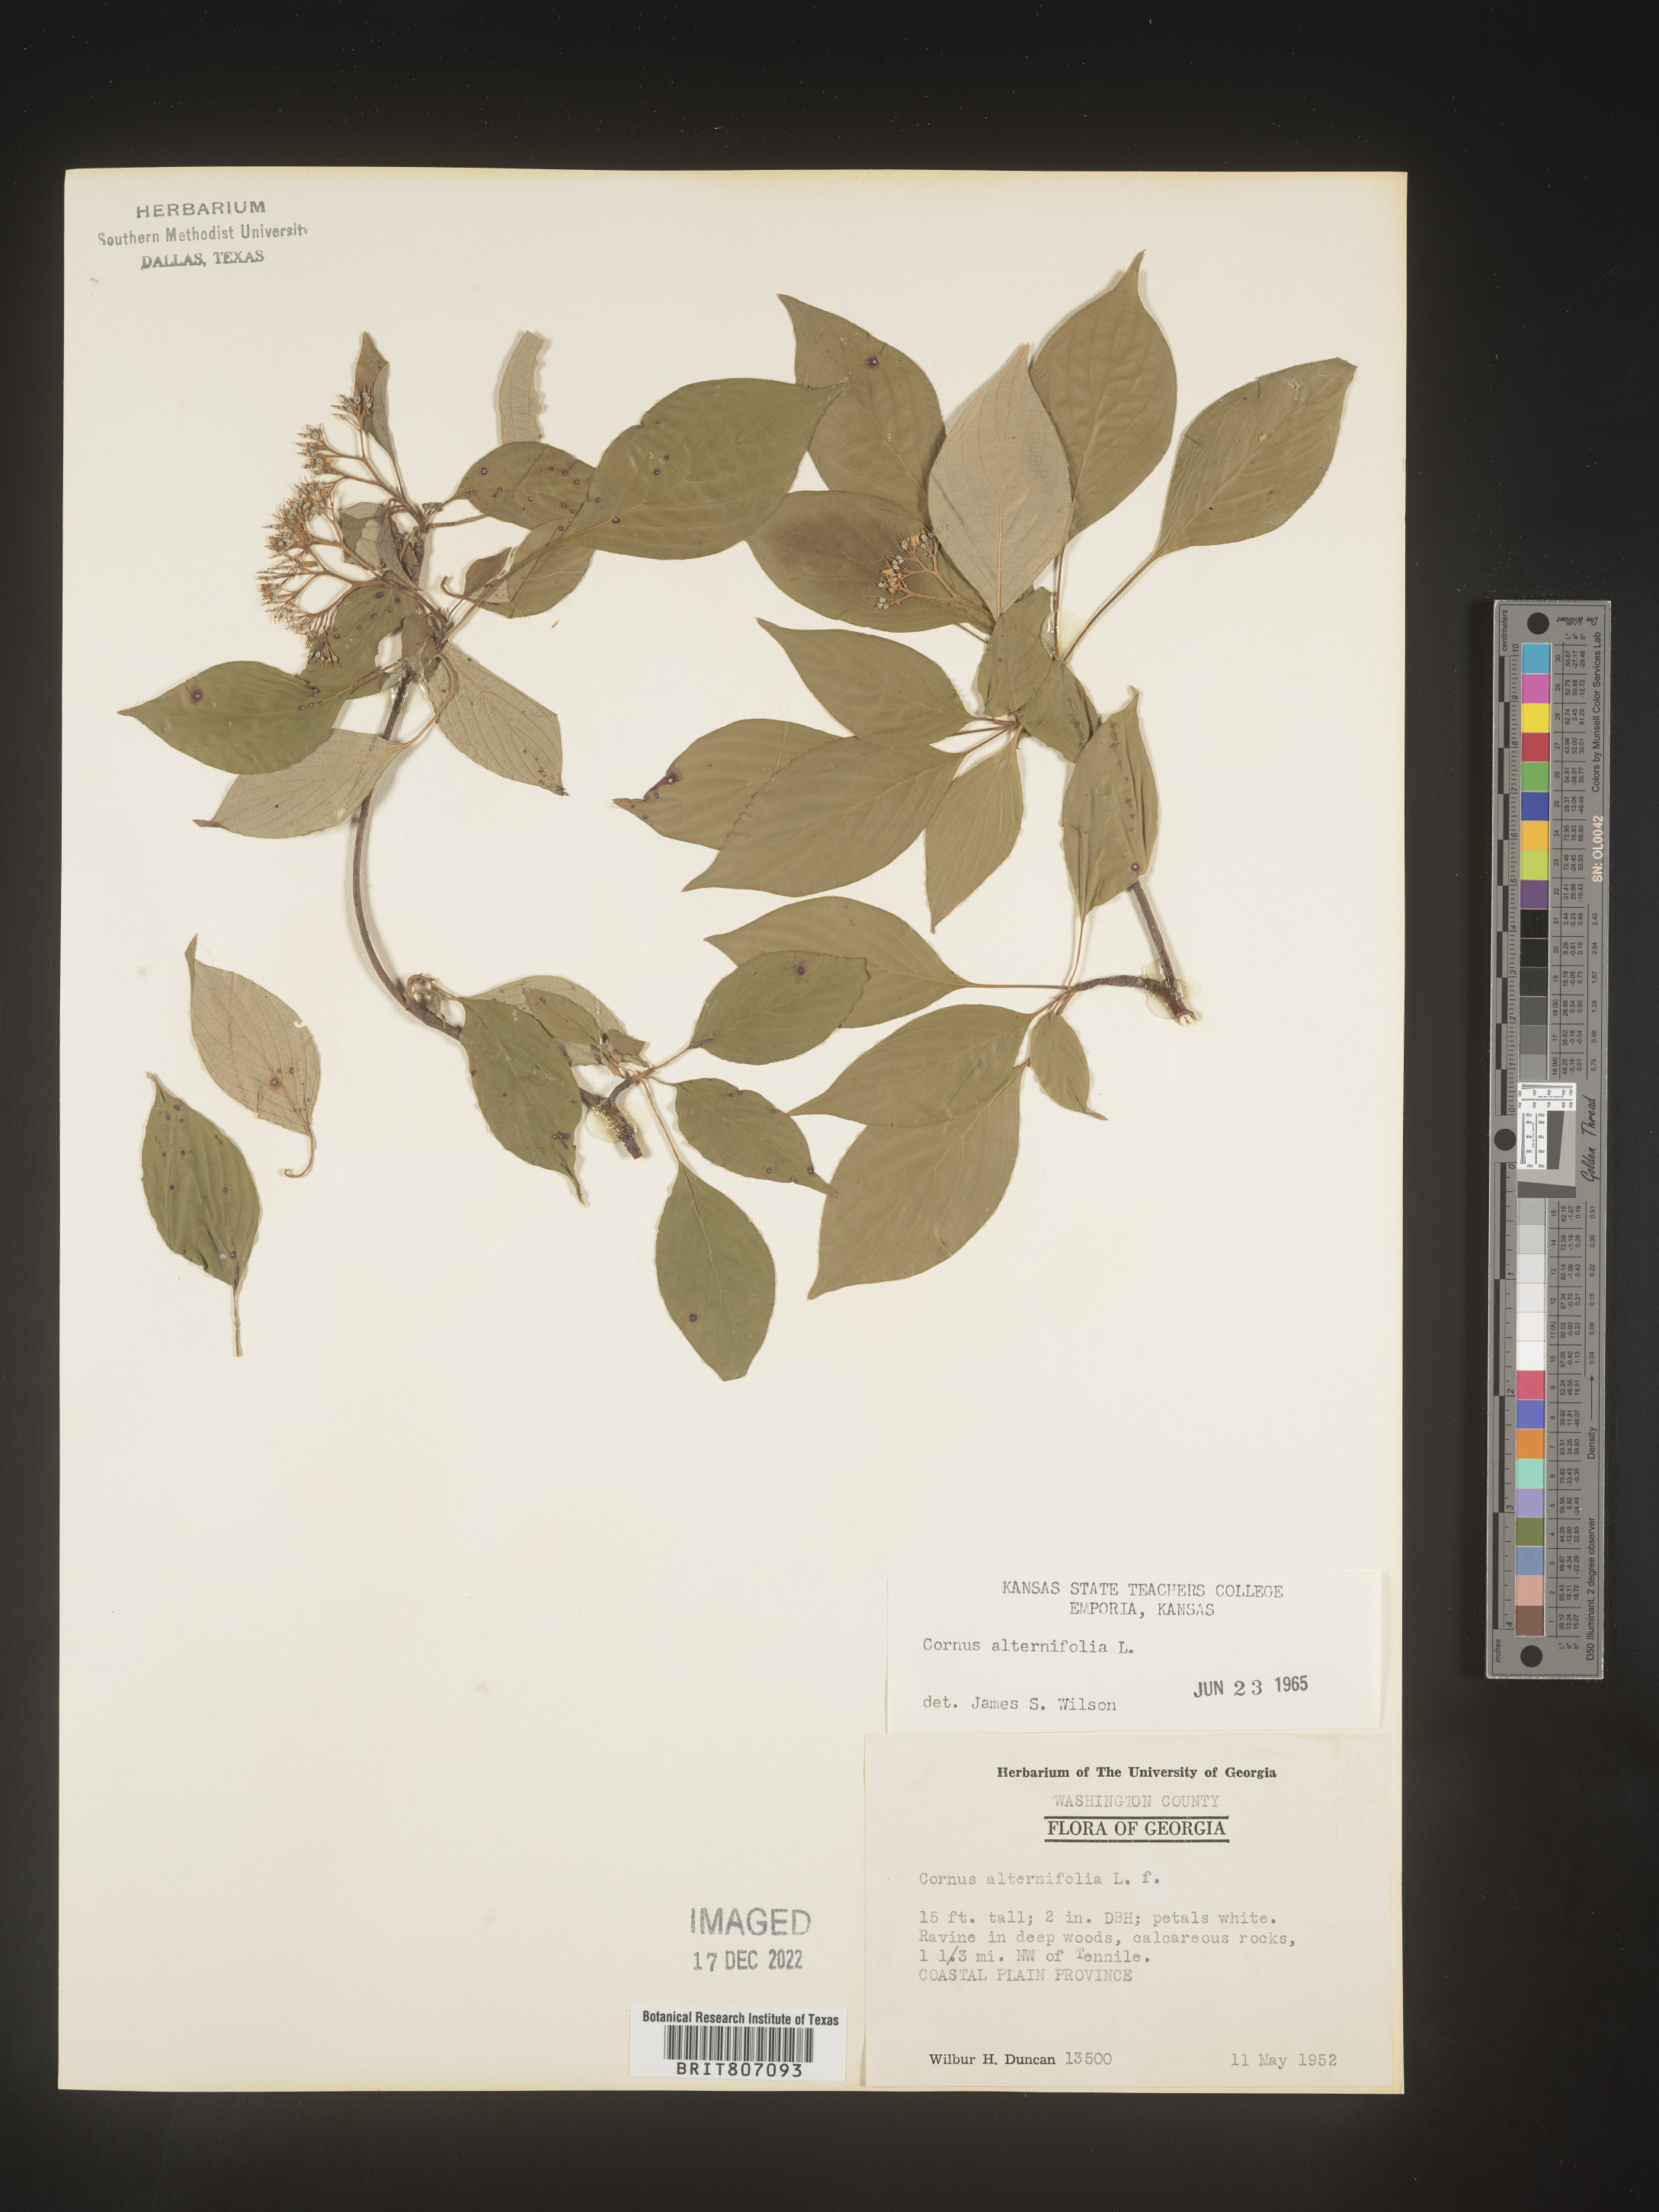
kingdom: Plantae
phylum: Tracheophyta
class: Magnoliopsida
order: Cornales
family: Cornaceae
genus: Cornus
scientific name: Cornus alternifolia
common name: Pagoda dogwood
